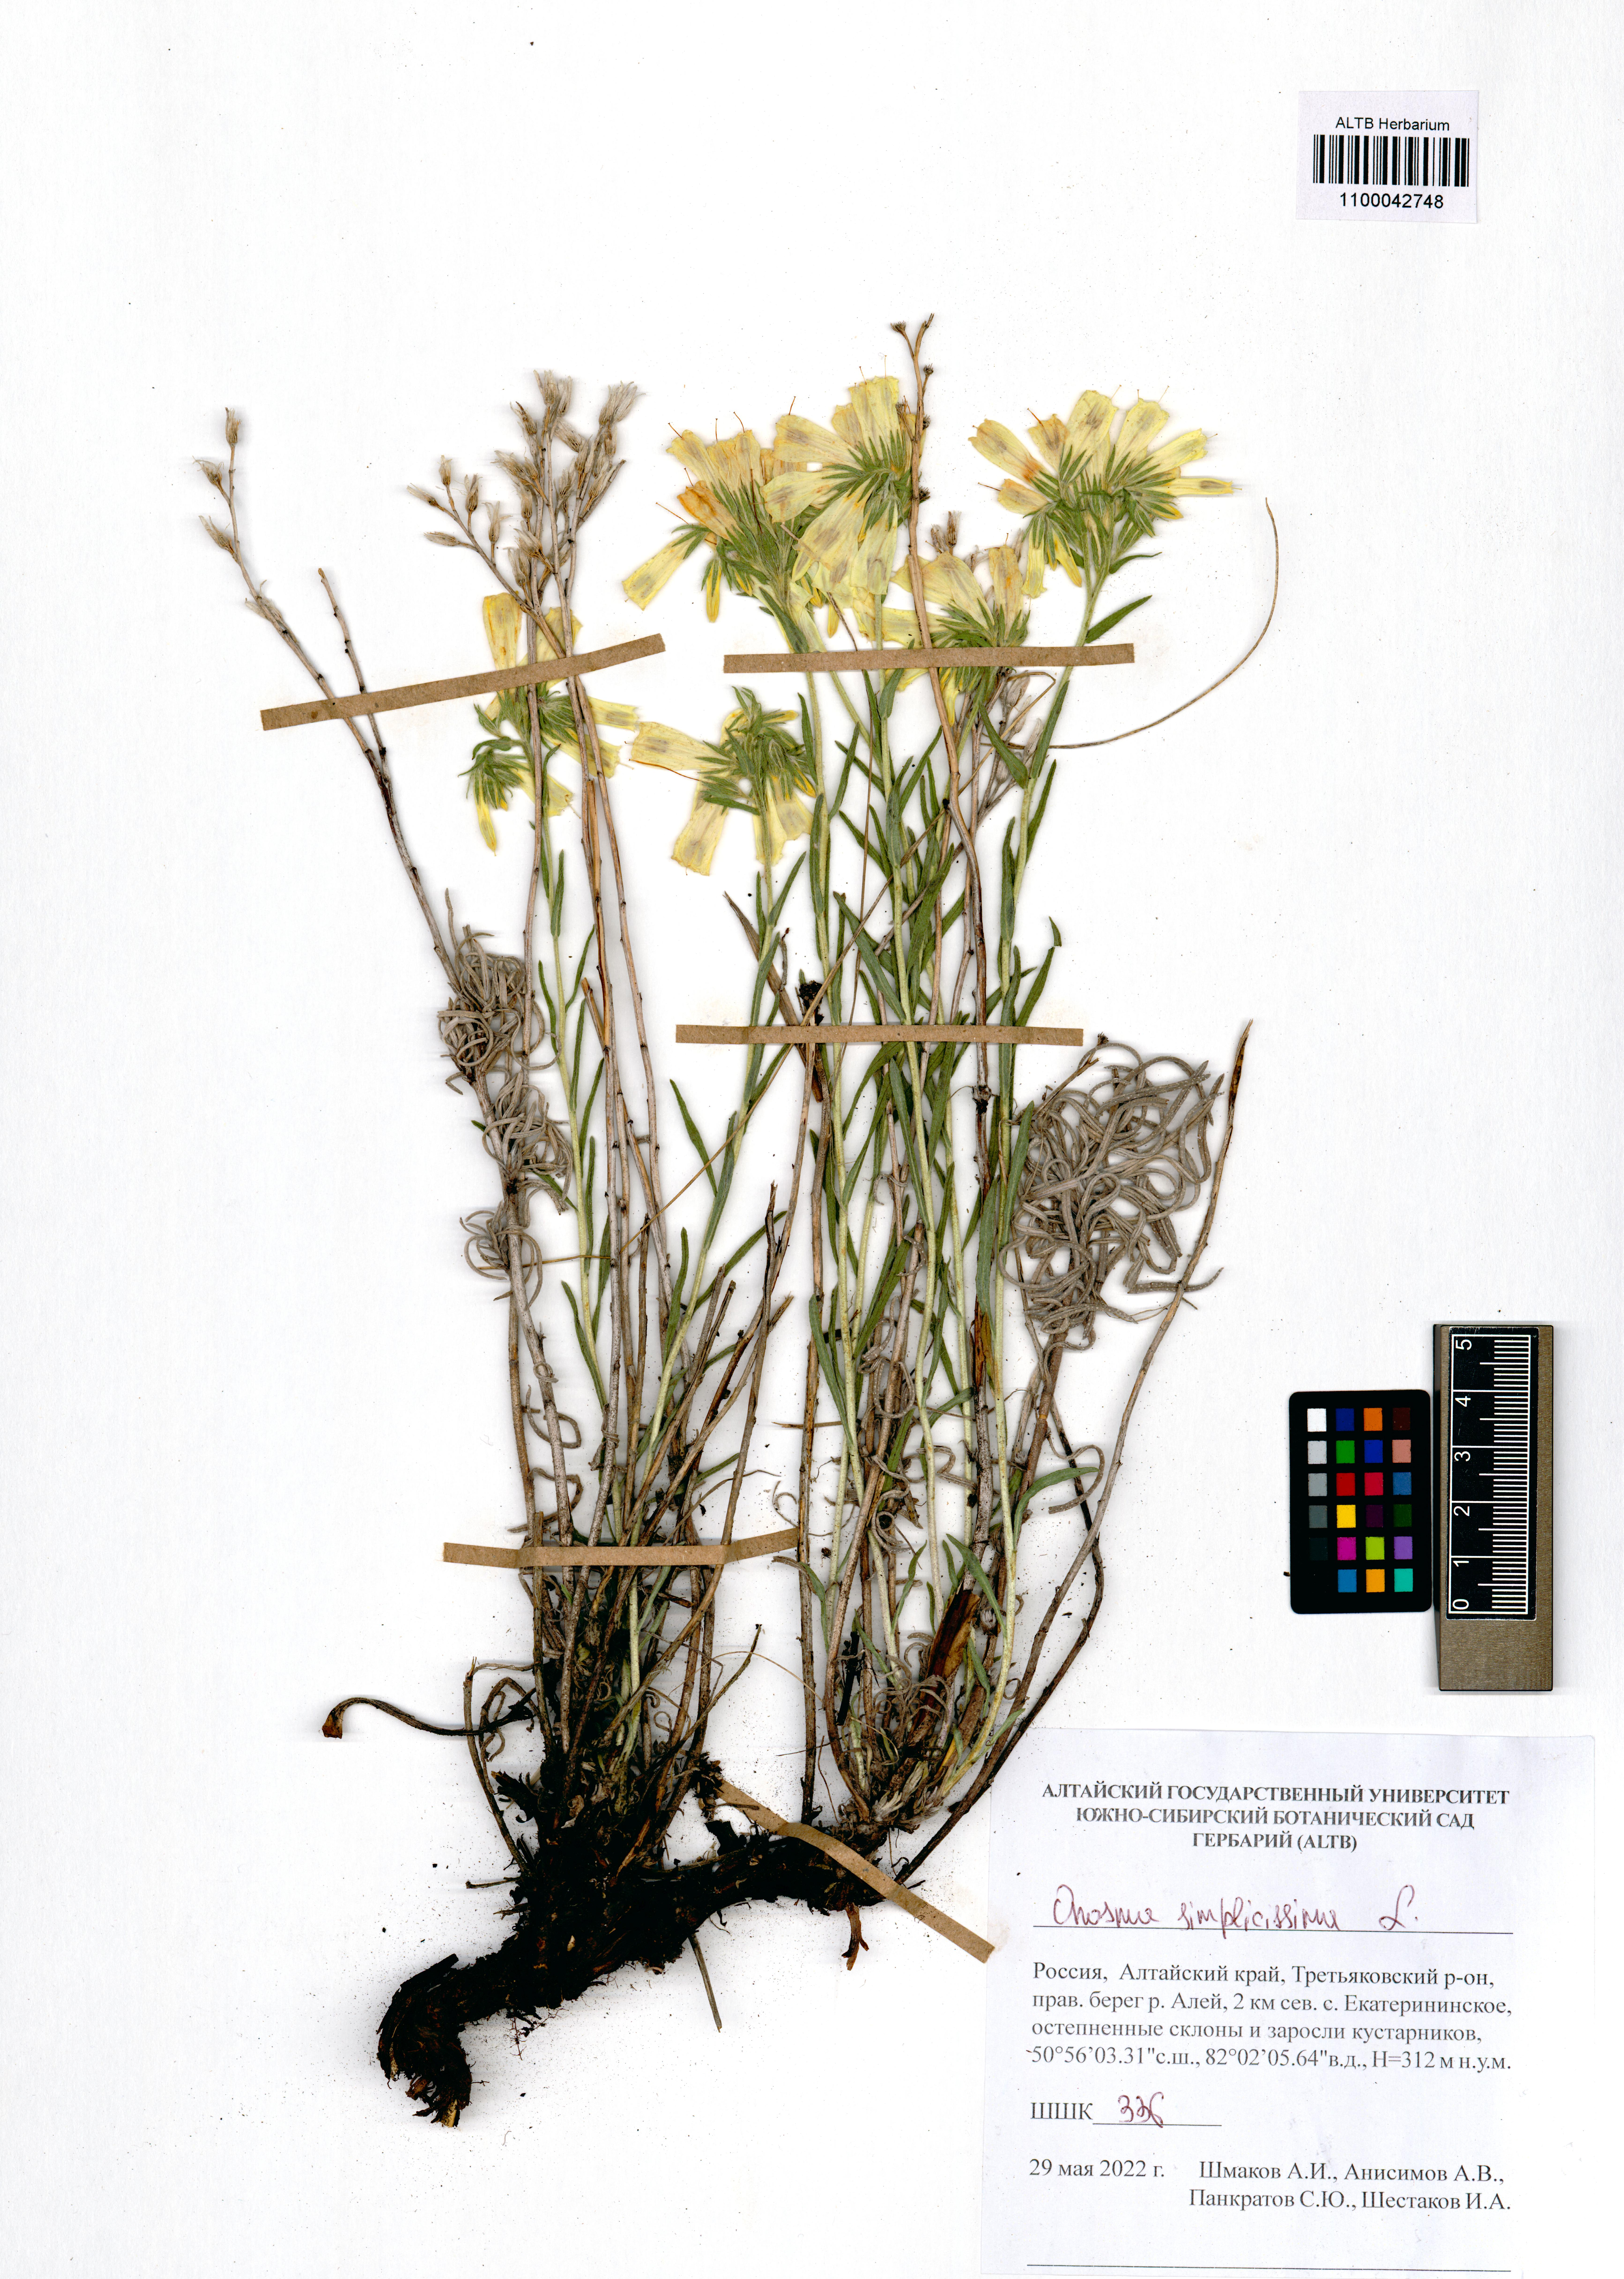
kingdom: Plantae
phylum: Tracheophyta
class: Magnoliopsida
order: Boraginales
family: Boraginaceae
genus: Onosma
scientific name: Onosma simplicissima
